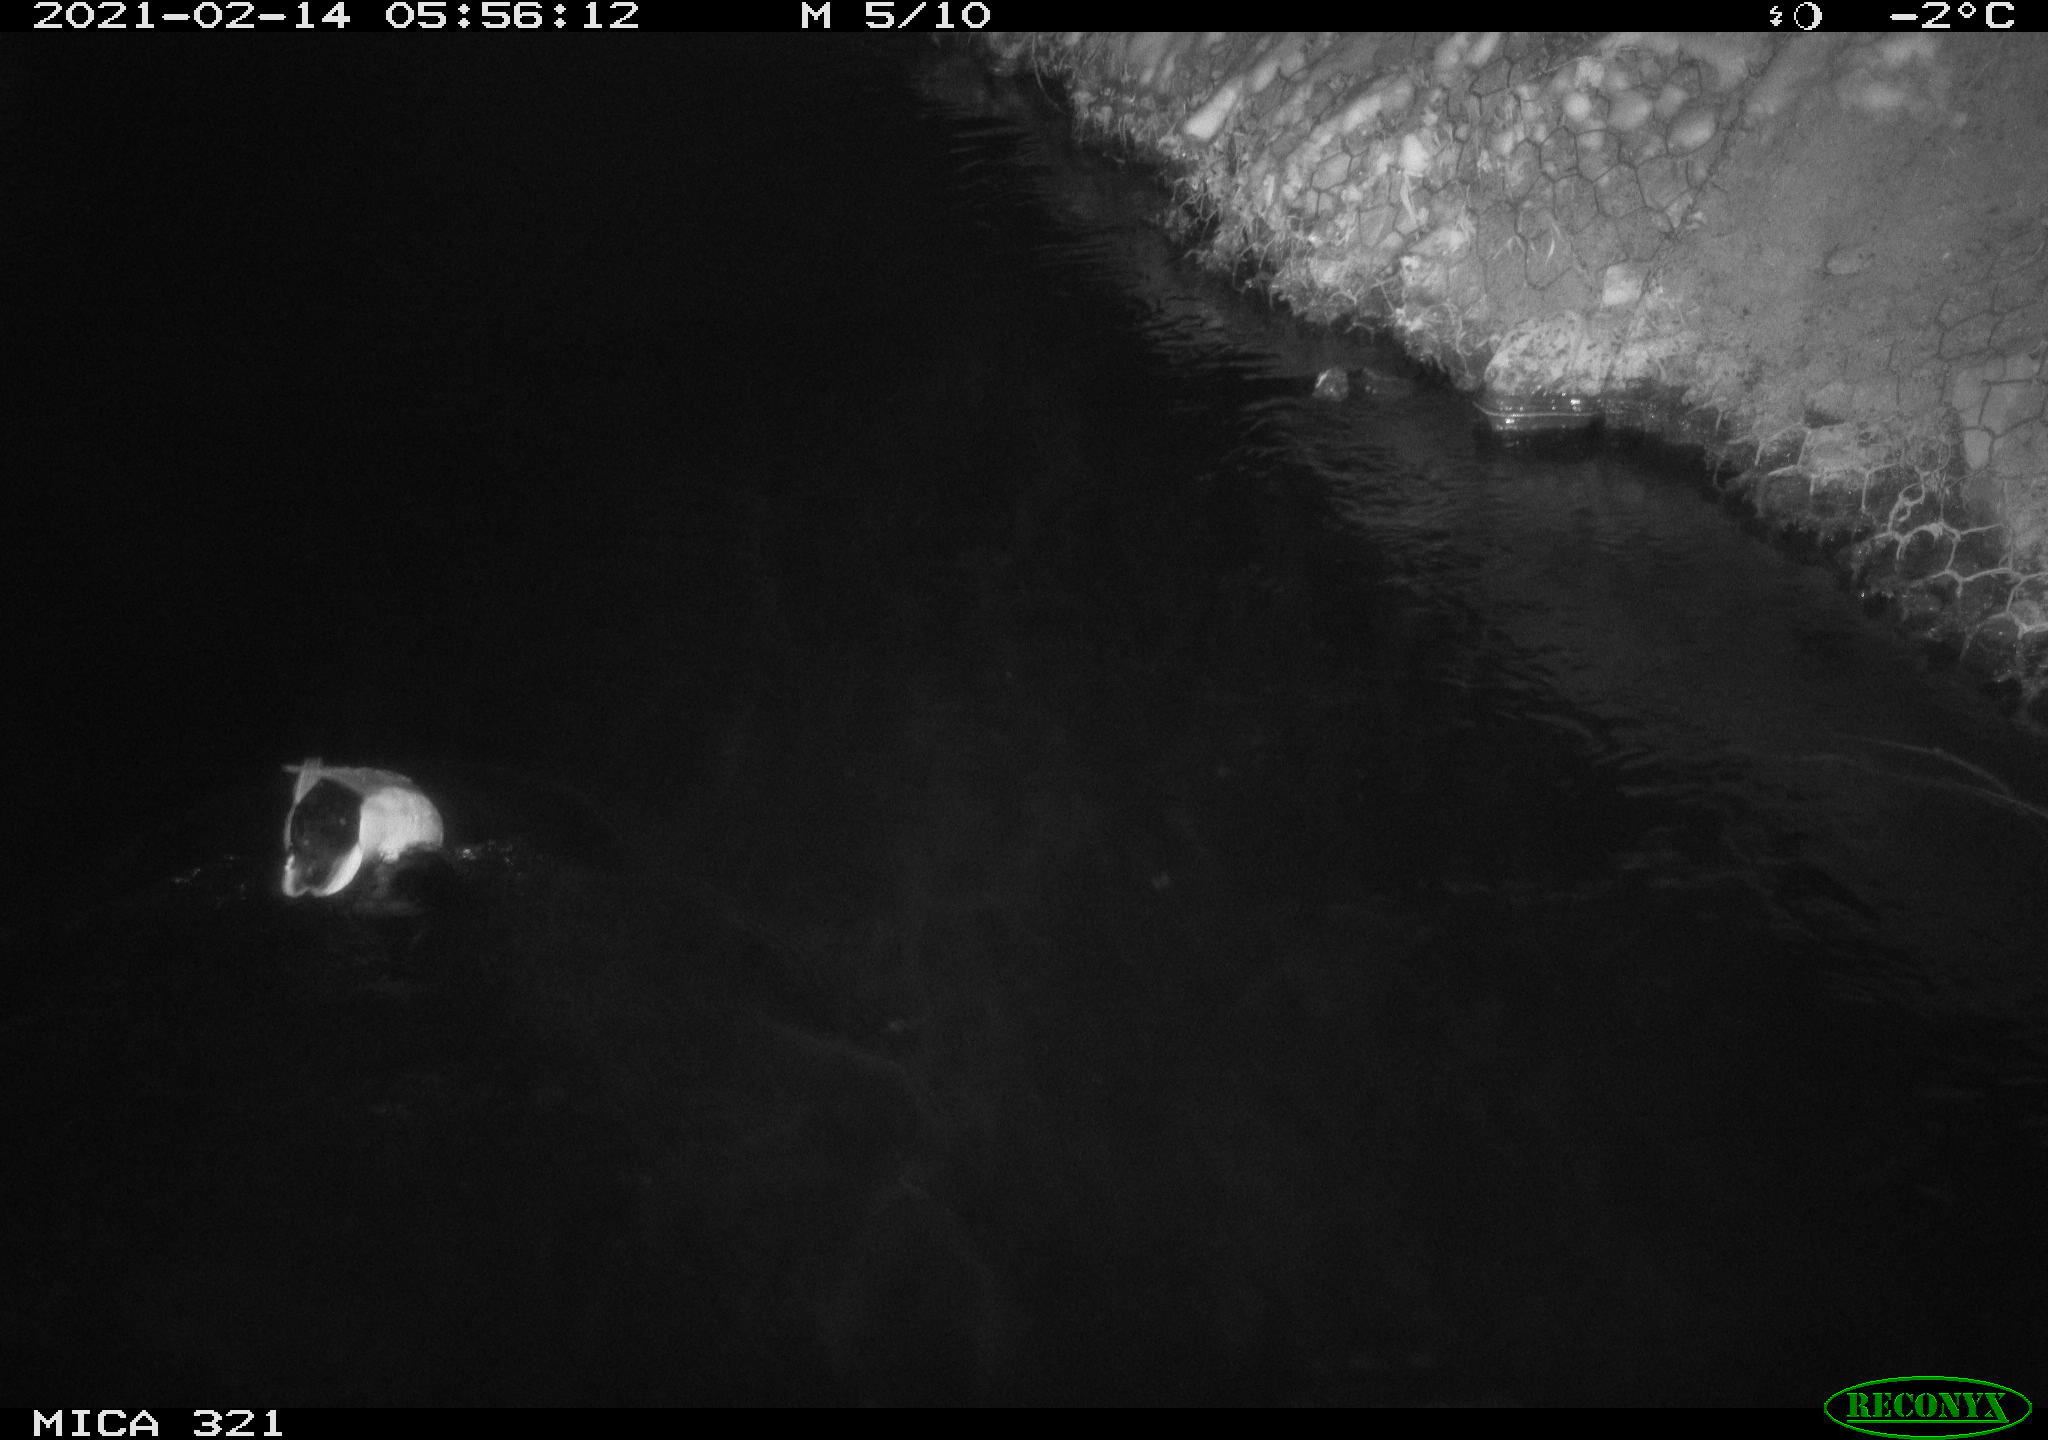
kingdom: Animalia
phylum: Chordata
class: Aves
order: Anseriformes
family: Anatidae
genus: Anas
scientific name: Anas platyrhynchos
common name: Mallard
